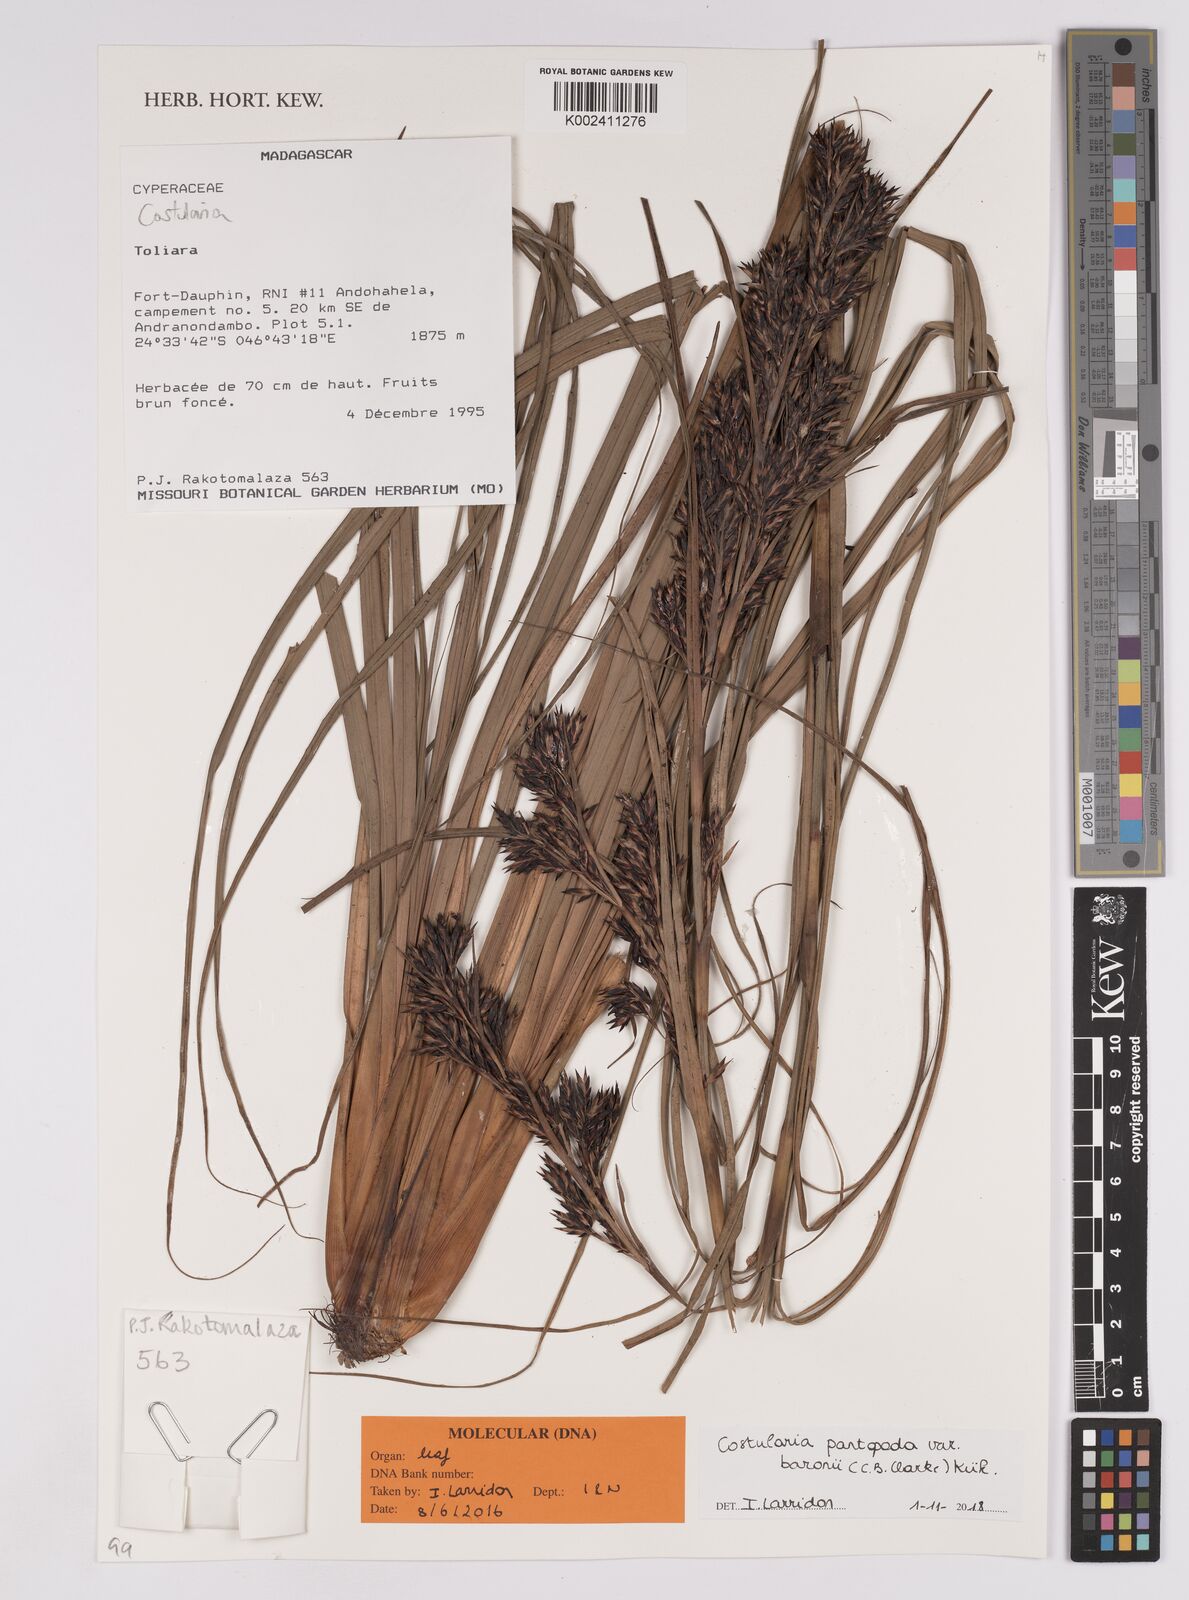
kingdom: Plantae
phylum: Tracheophyta
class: Liliopsida
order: Poales
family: Cyperaceae
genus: Costularia
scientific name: Costularia pantopoda
